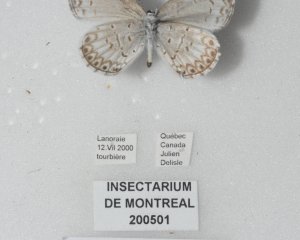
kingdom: Animalia
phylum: Arthropoda
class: Insecta
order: Lepidoptera
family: Lycaenidae
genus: Cyaniris
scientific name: Cyaniris neglecta
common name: Summer Azure
